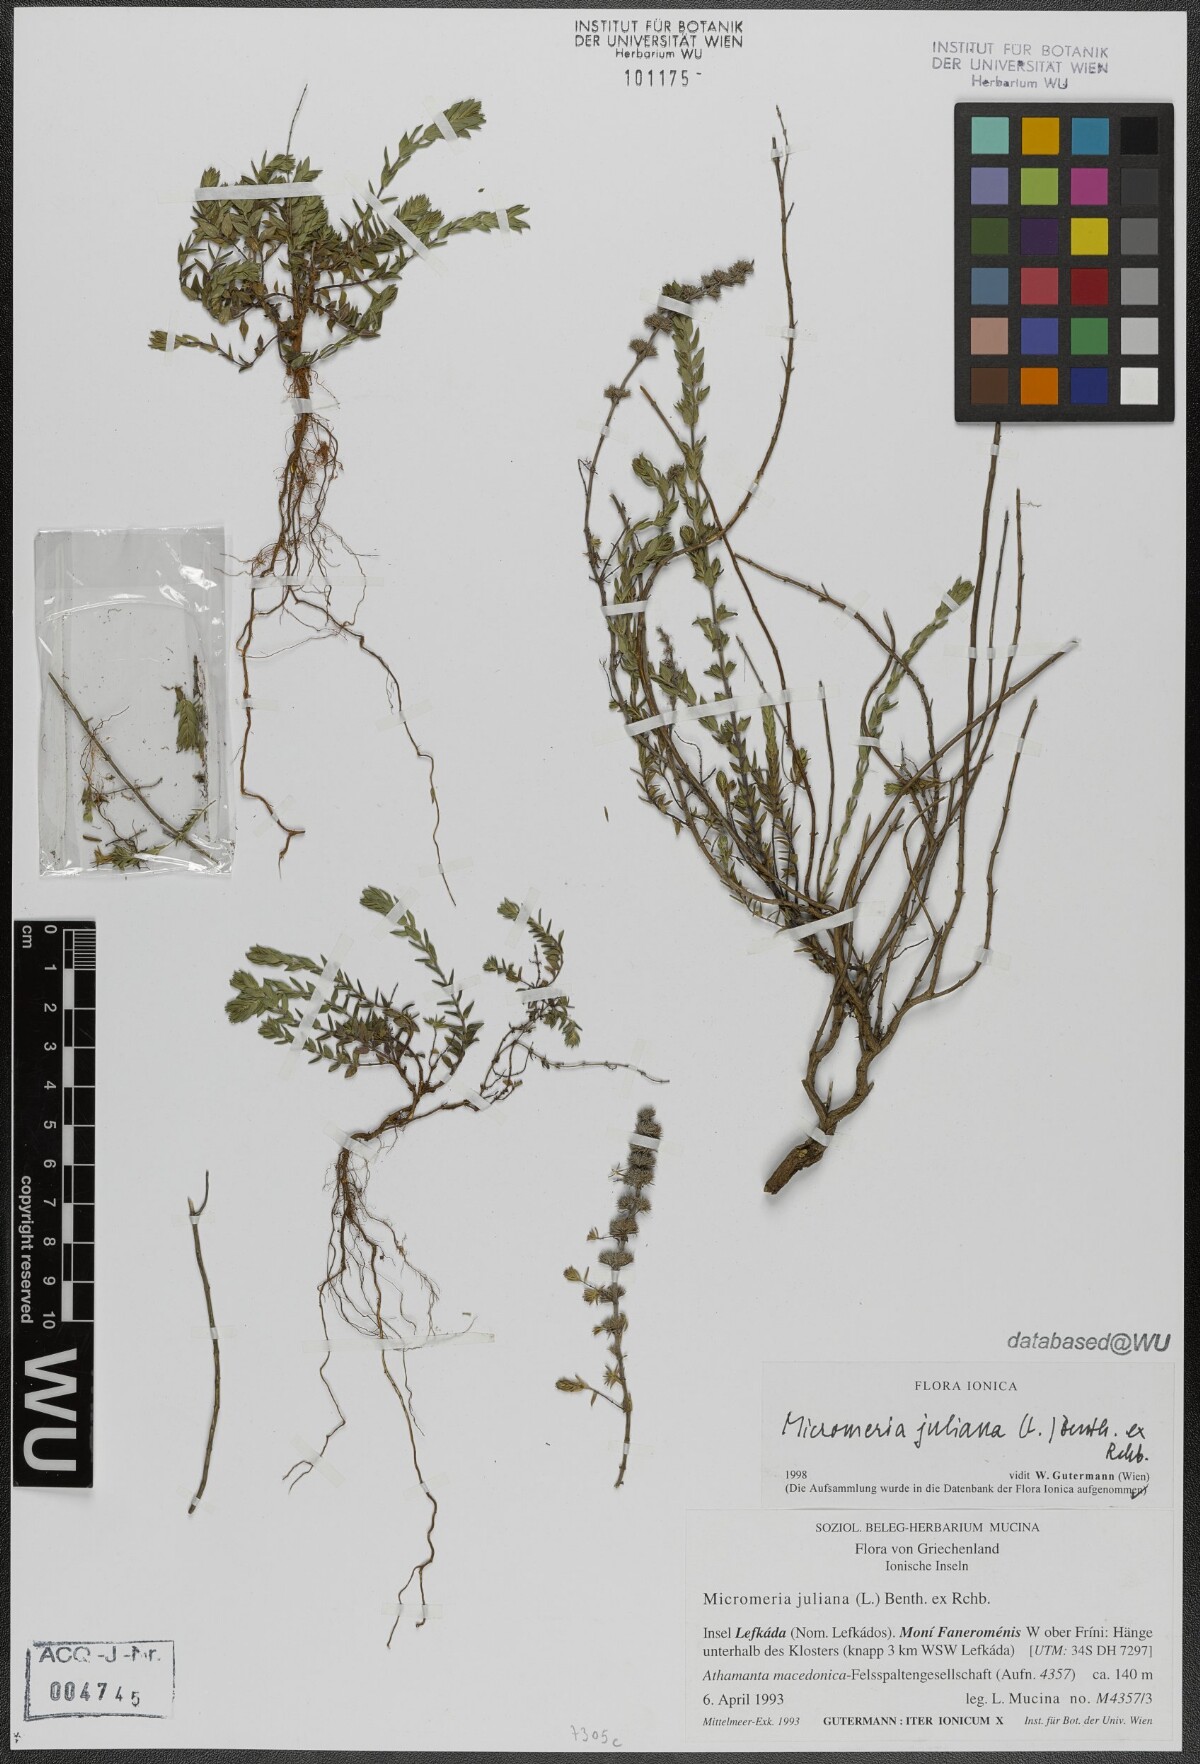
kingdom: Plantae
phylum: Tracheophyta
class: Magnoliopsida
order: Lamiales
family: Lamiaceae
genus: Micromeria
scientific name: Micromeria juliana
